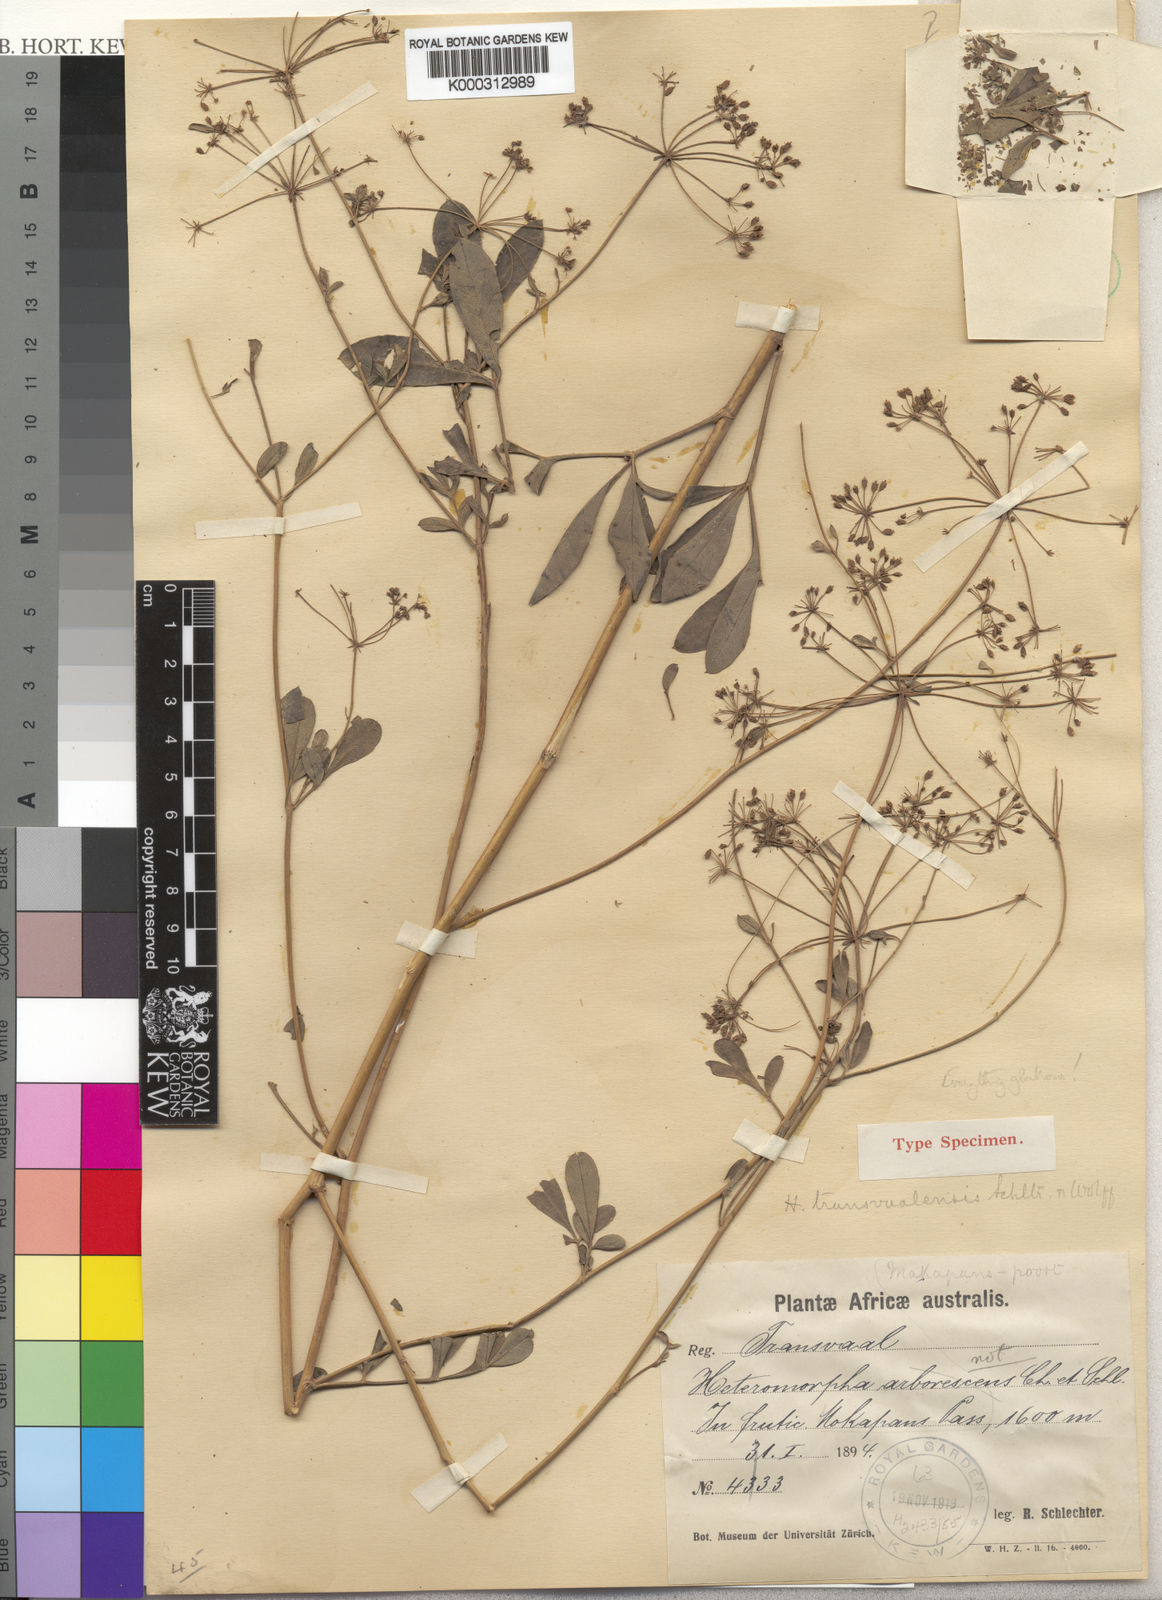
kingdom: Plantae
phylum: Tracheophyta
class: Magnoliopsida
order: Apiales
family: Apiaceae
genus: Heteromorpha
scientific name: Heteromorpha stenophylla
